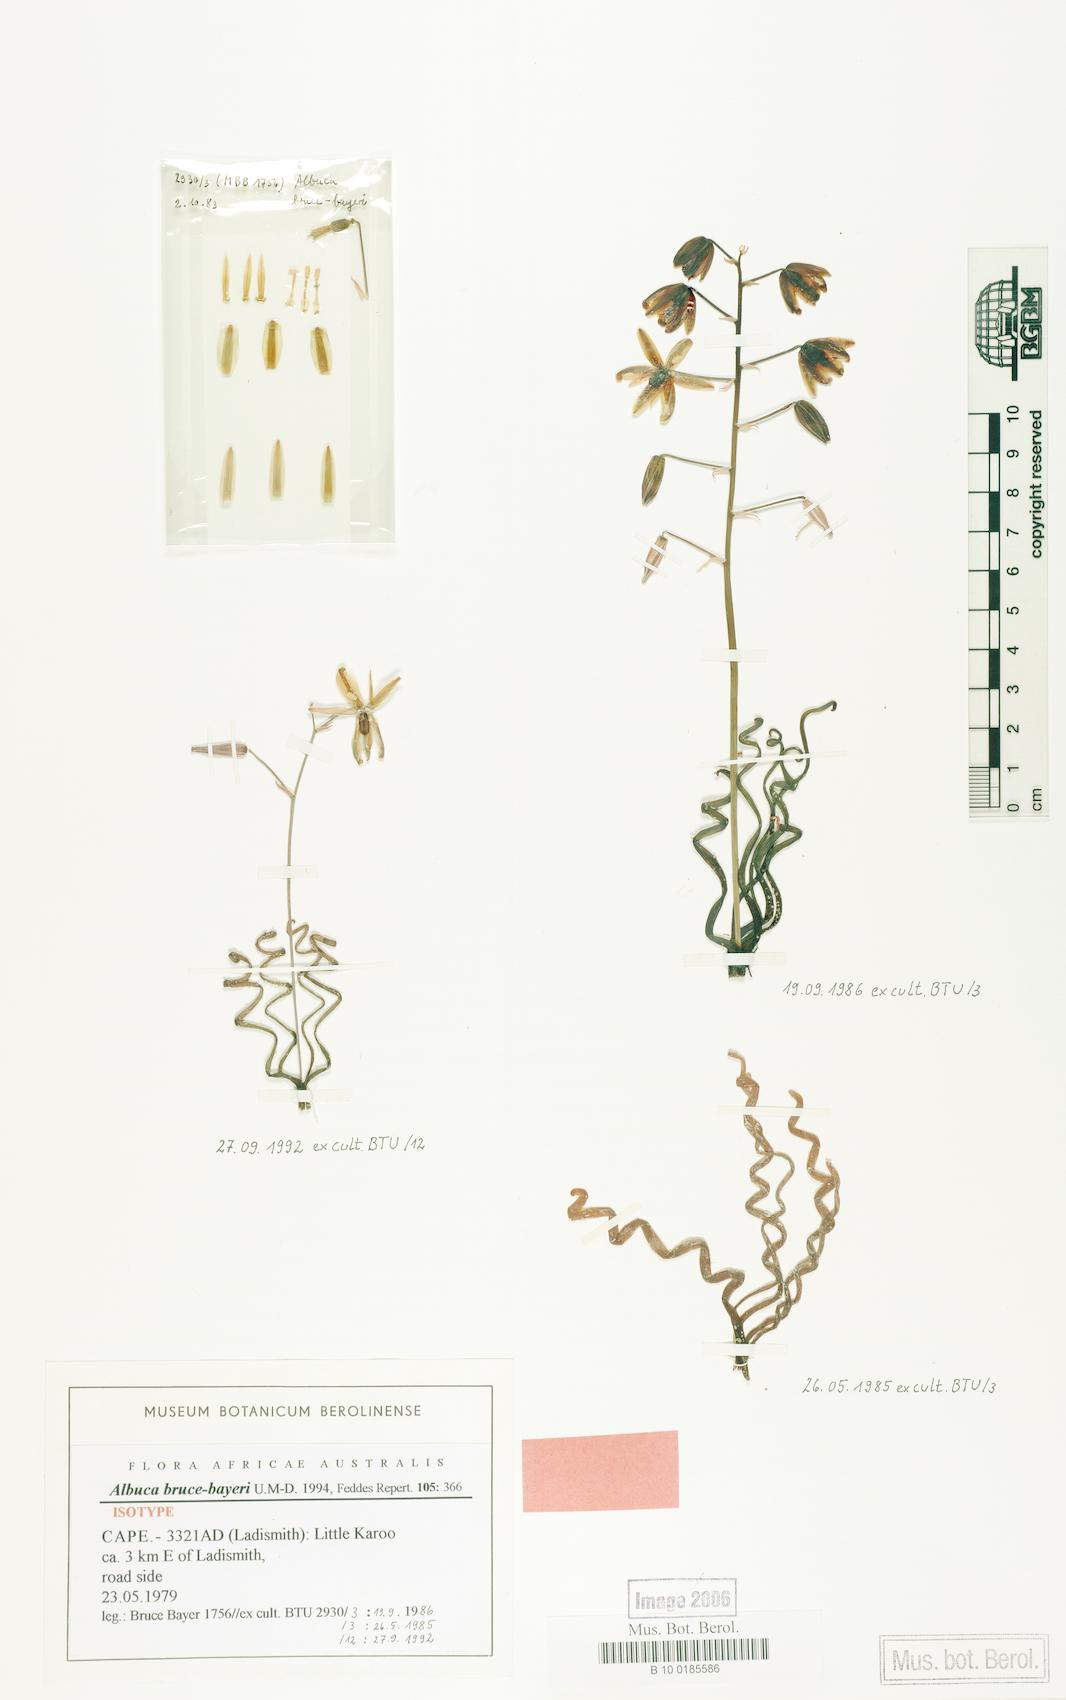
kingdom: Plantae
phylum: Tracheophyta
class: Liliopsida
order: Asparagales
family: Asparagaceae
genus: Albuca
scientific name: Albuca bruce-bayeri
